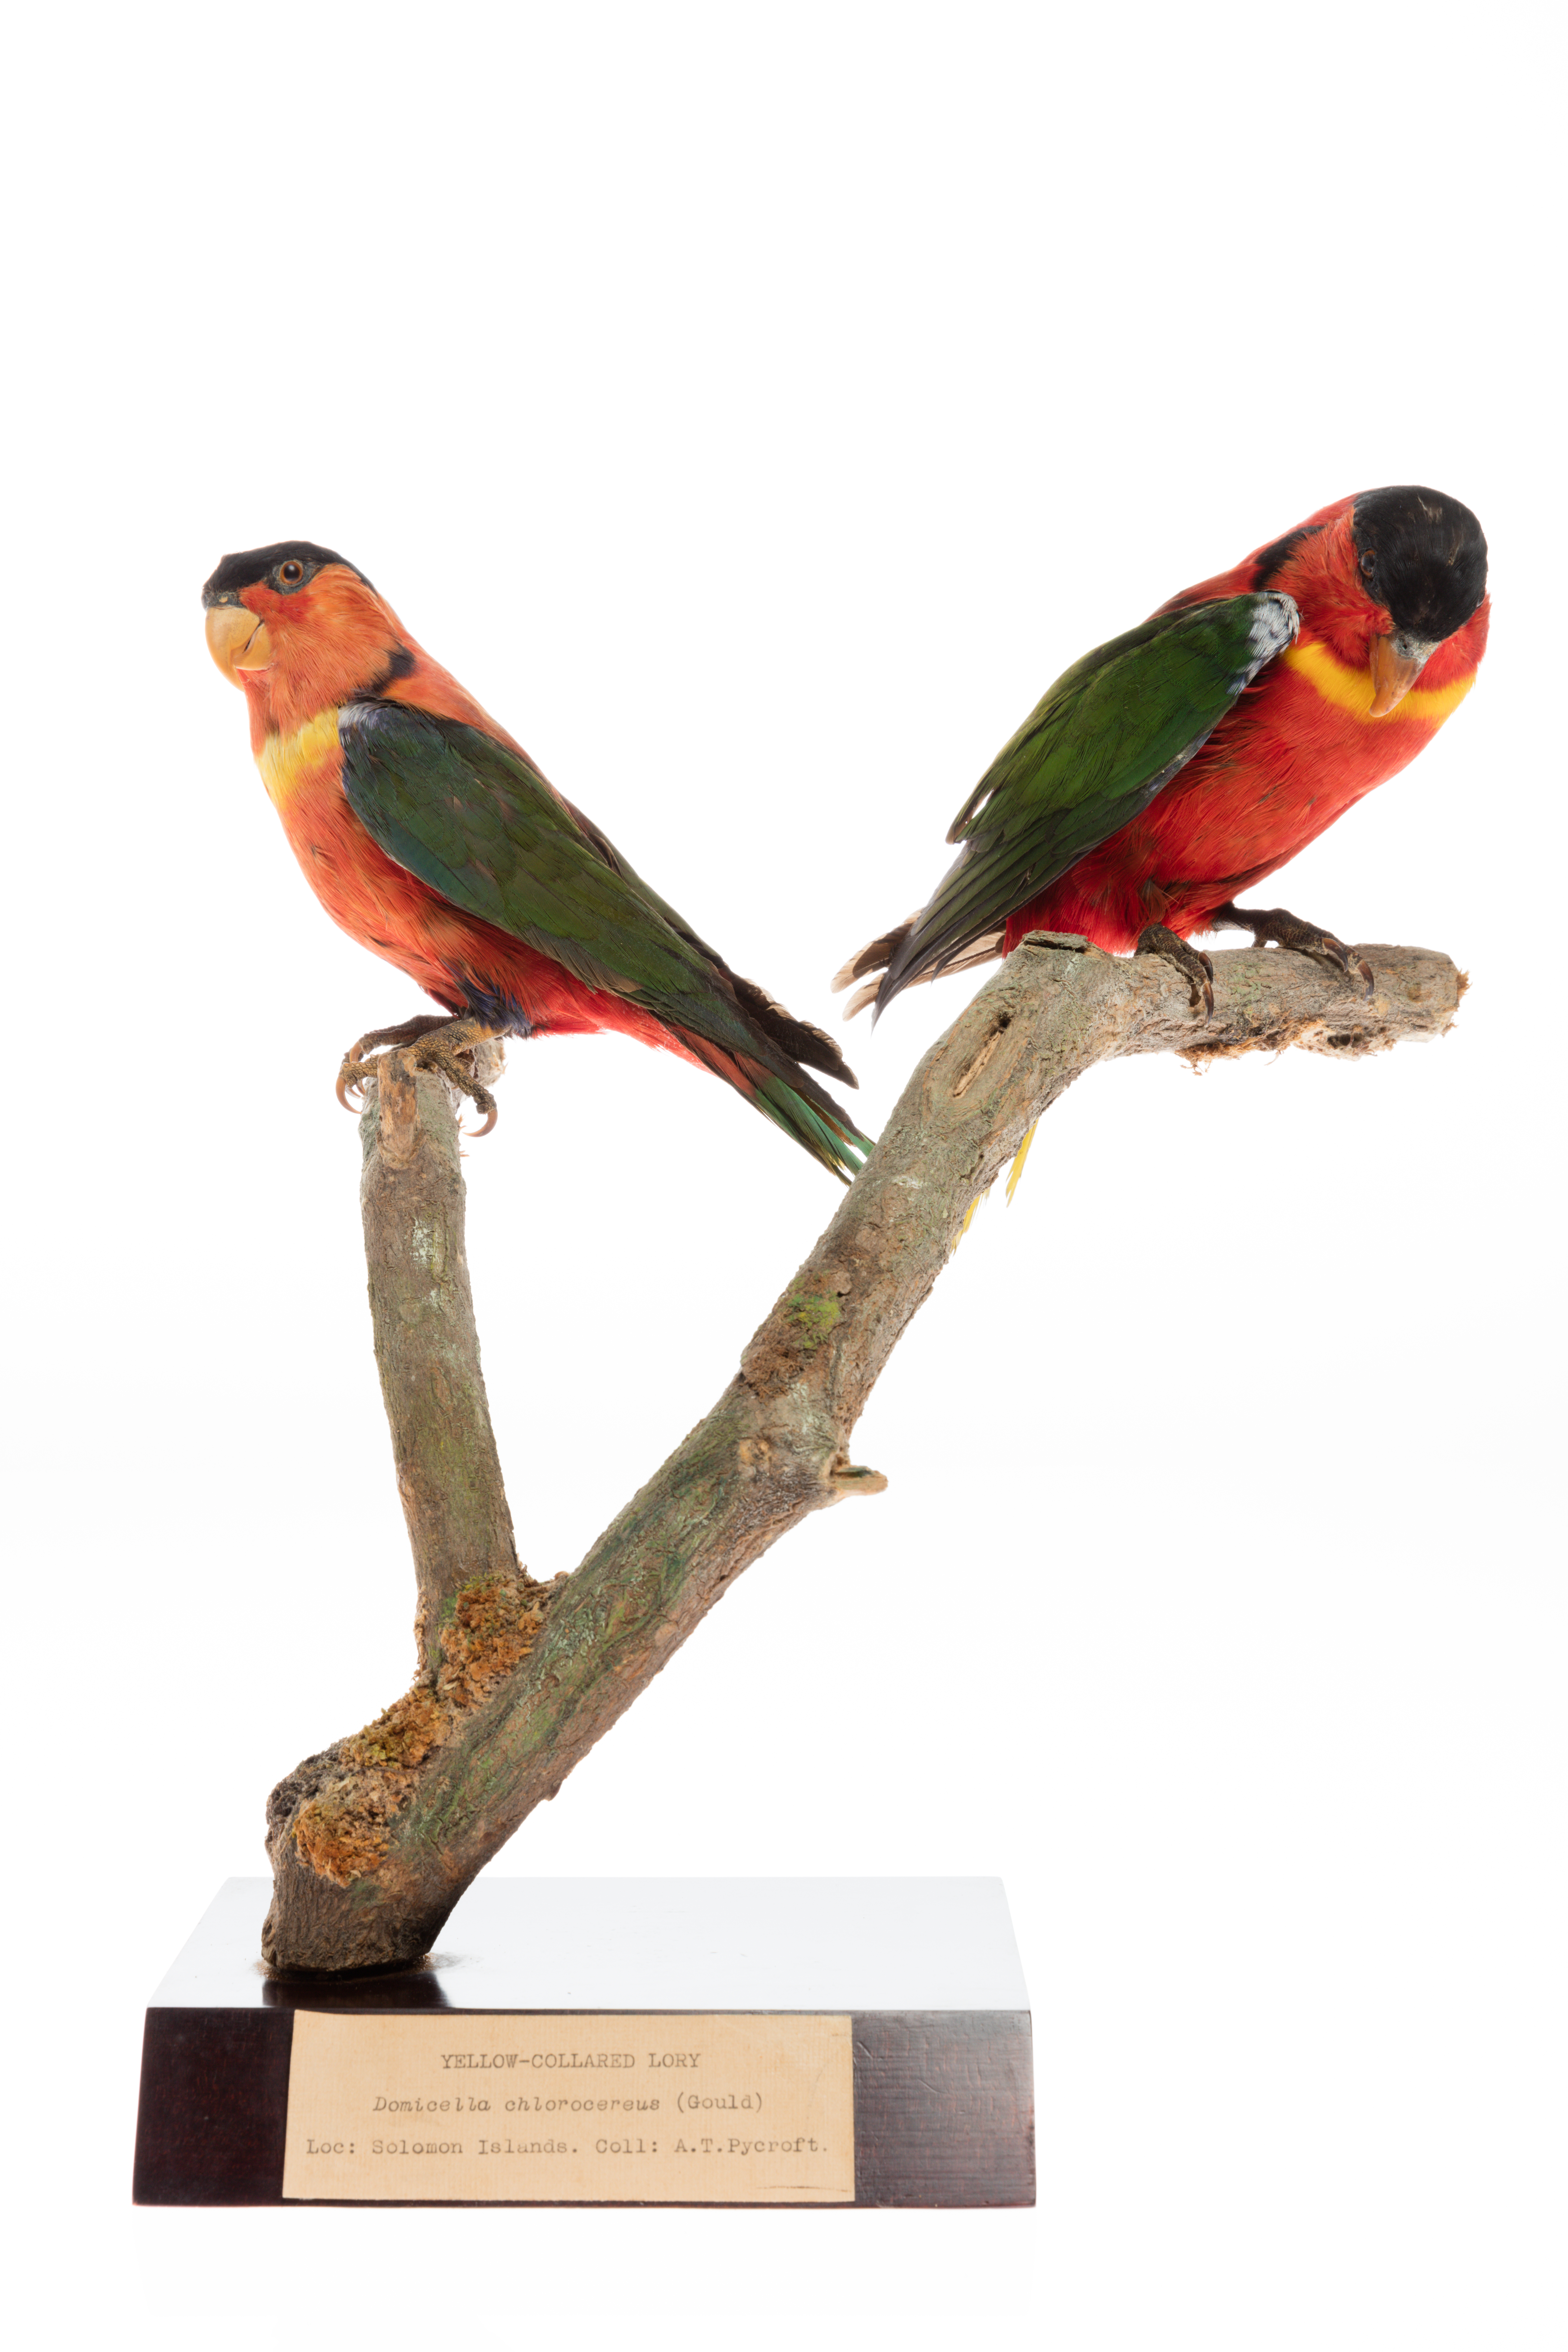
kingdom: Animalia
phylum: Chordata
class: Aves
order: Psittaciformes
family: Psittacidae
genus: Lorius
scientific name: Lorius chlorocercus
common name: Yellow-bibbed lory
